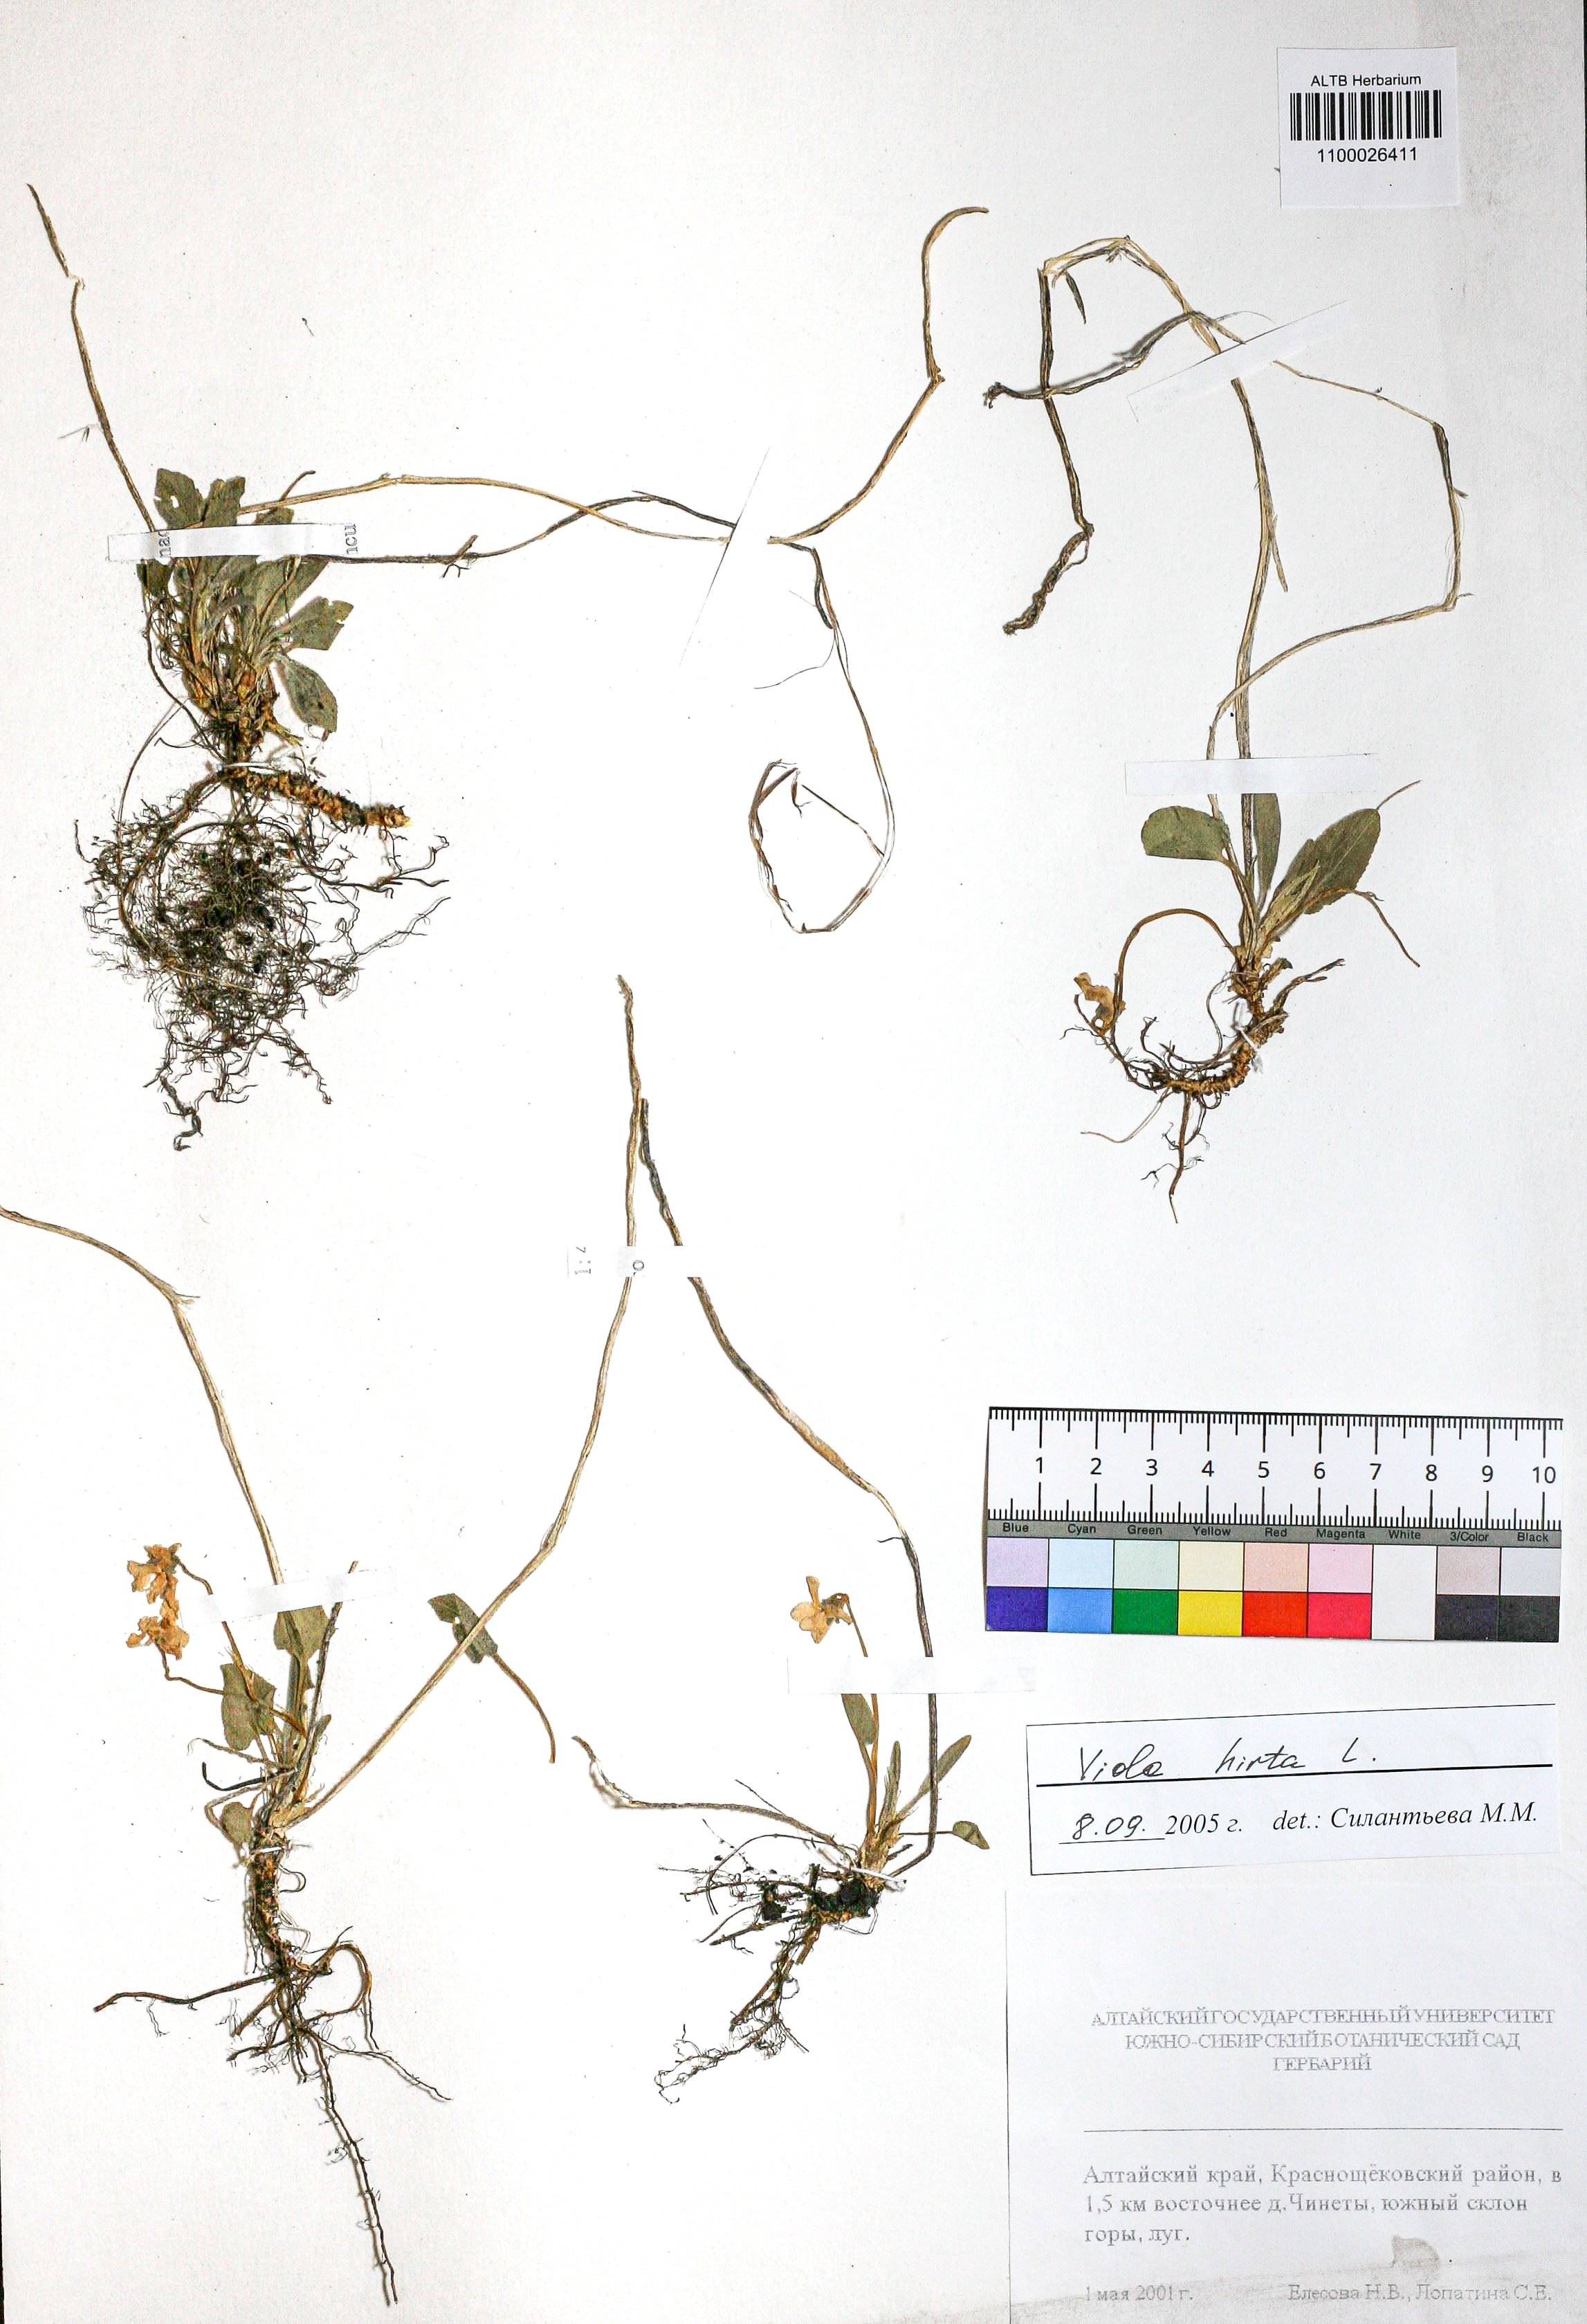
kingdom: Plantae
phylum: Tracheophyta
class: Magnoliopsida
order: Malpighiales
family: Violaceae
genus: Viola
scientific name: Viola hirta
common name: Hairy violet
